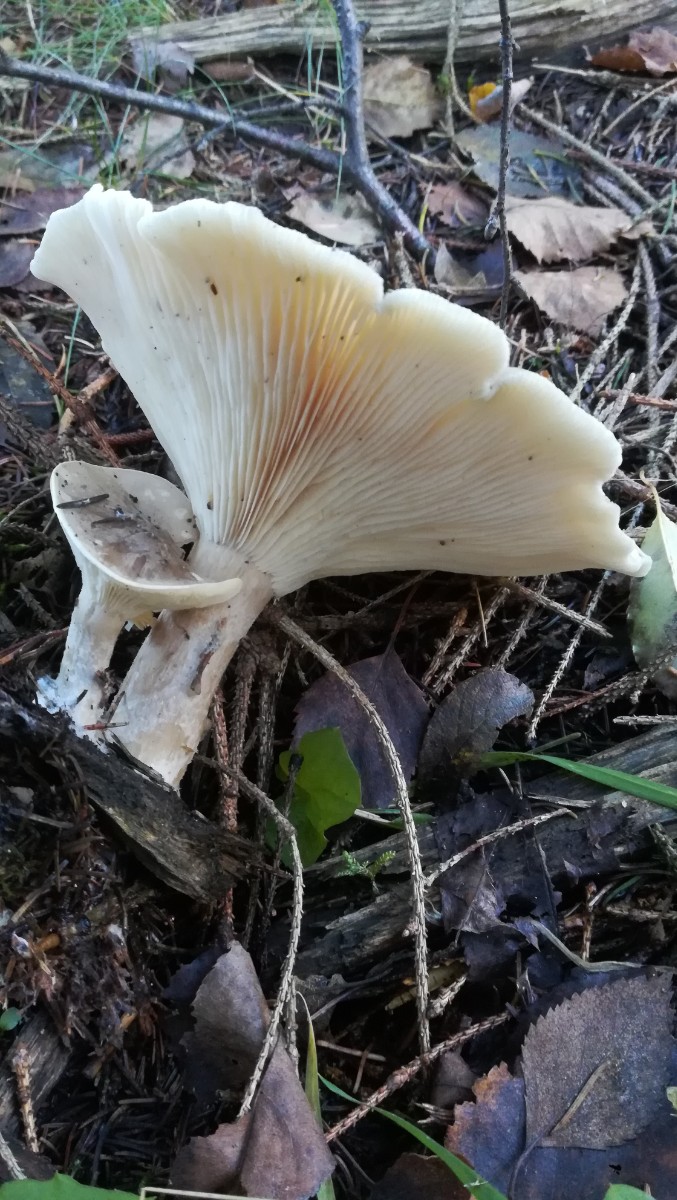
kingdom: Fungi
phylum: Basidiomycota
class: Agaricomycetes
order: Agaricales
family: Tricholomataceae
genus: Clitocybe
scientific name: Clitocybe nebularis
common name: tåge-tragthat
